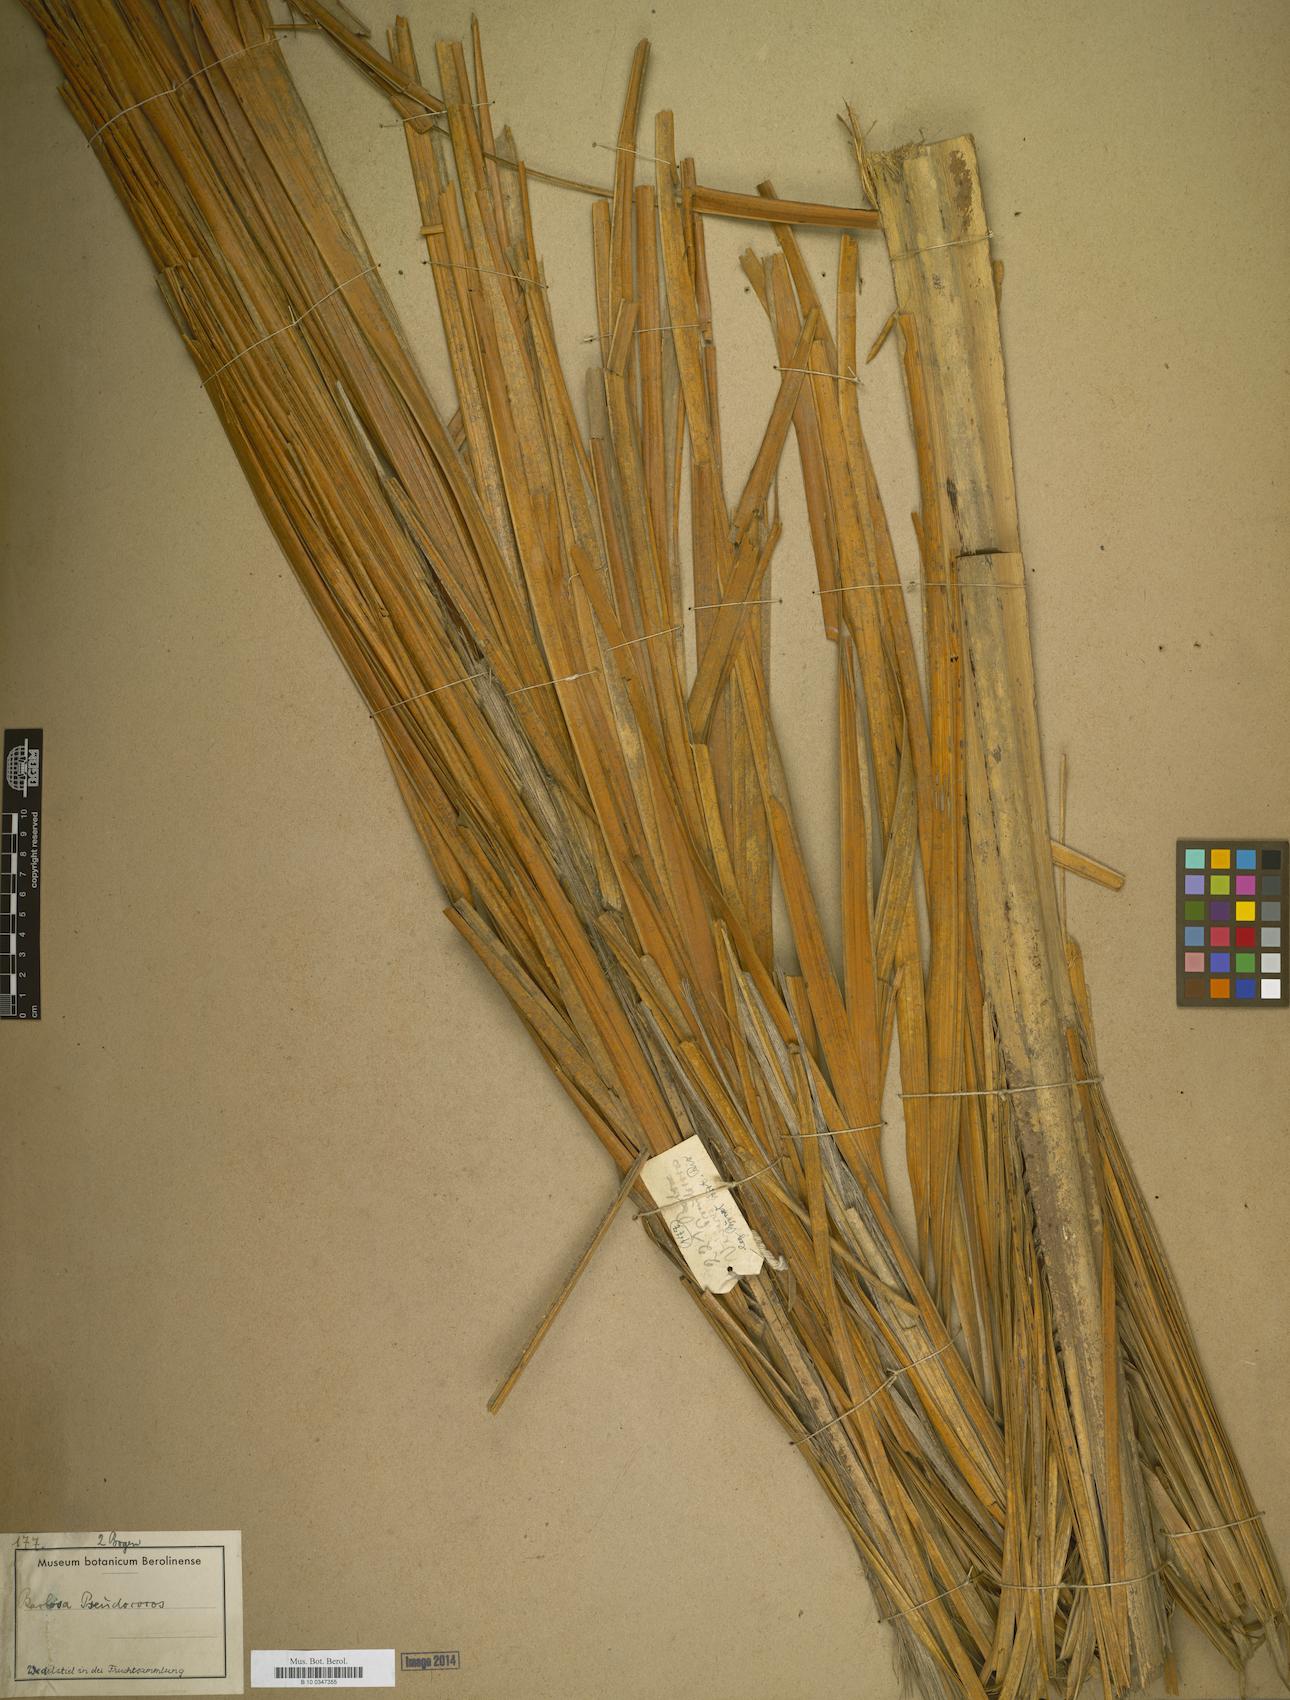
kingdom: Plantae
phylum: Tracheophyta
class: Liliopsida
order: Arecales
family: Arecaceae
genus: Syagrus
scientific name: Syagrus
